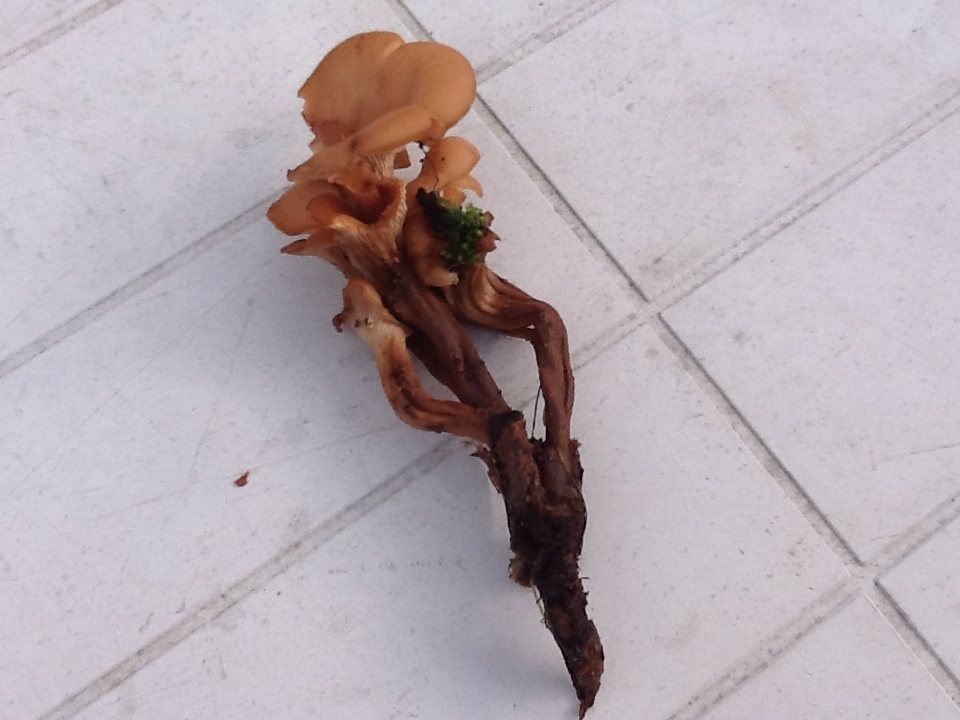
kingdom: Fungi
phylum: Basidiomycota
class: Agaricomycetes
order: Russulales
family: Auriscalpiaceae
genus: Lentinellus
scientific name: Lentinellus cochleatus
